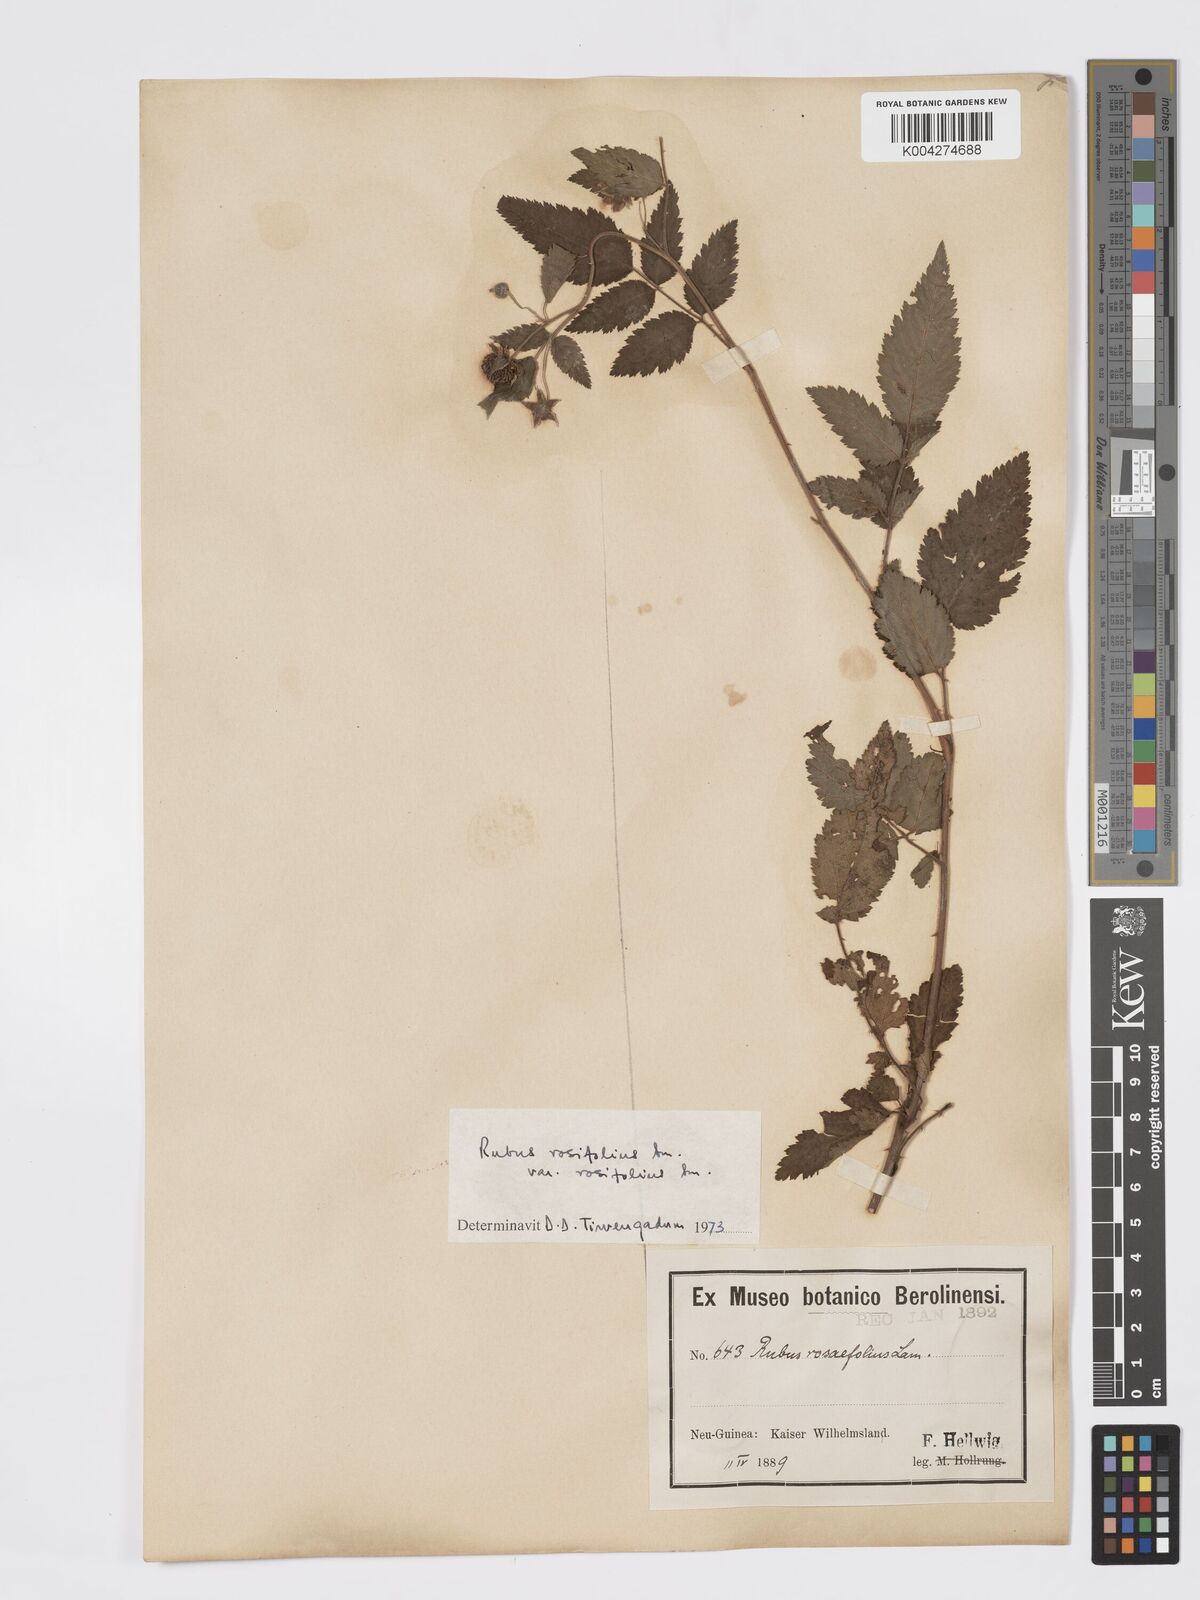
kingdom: Plantae
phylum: Tracheophyta
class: Magnoliopsida
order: Rosales
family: Rosaceae
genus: Rubus
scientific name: Rubus
